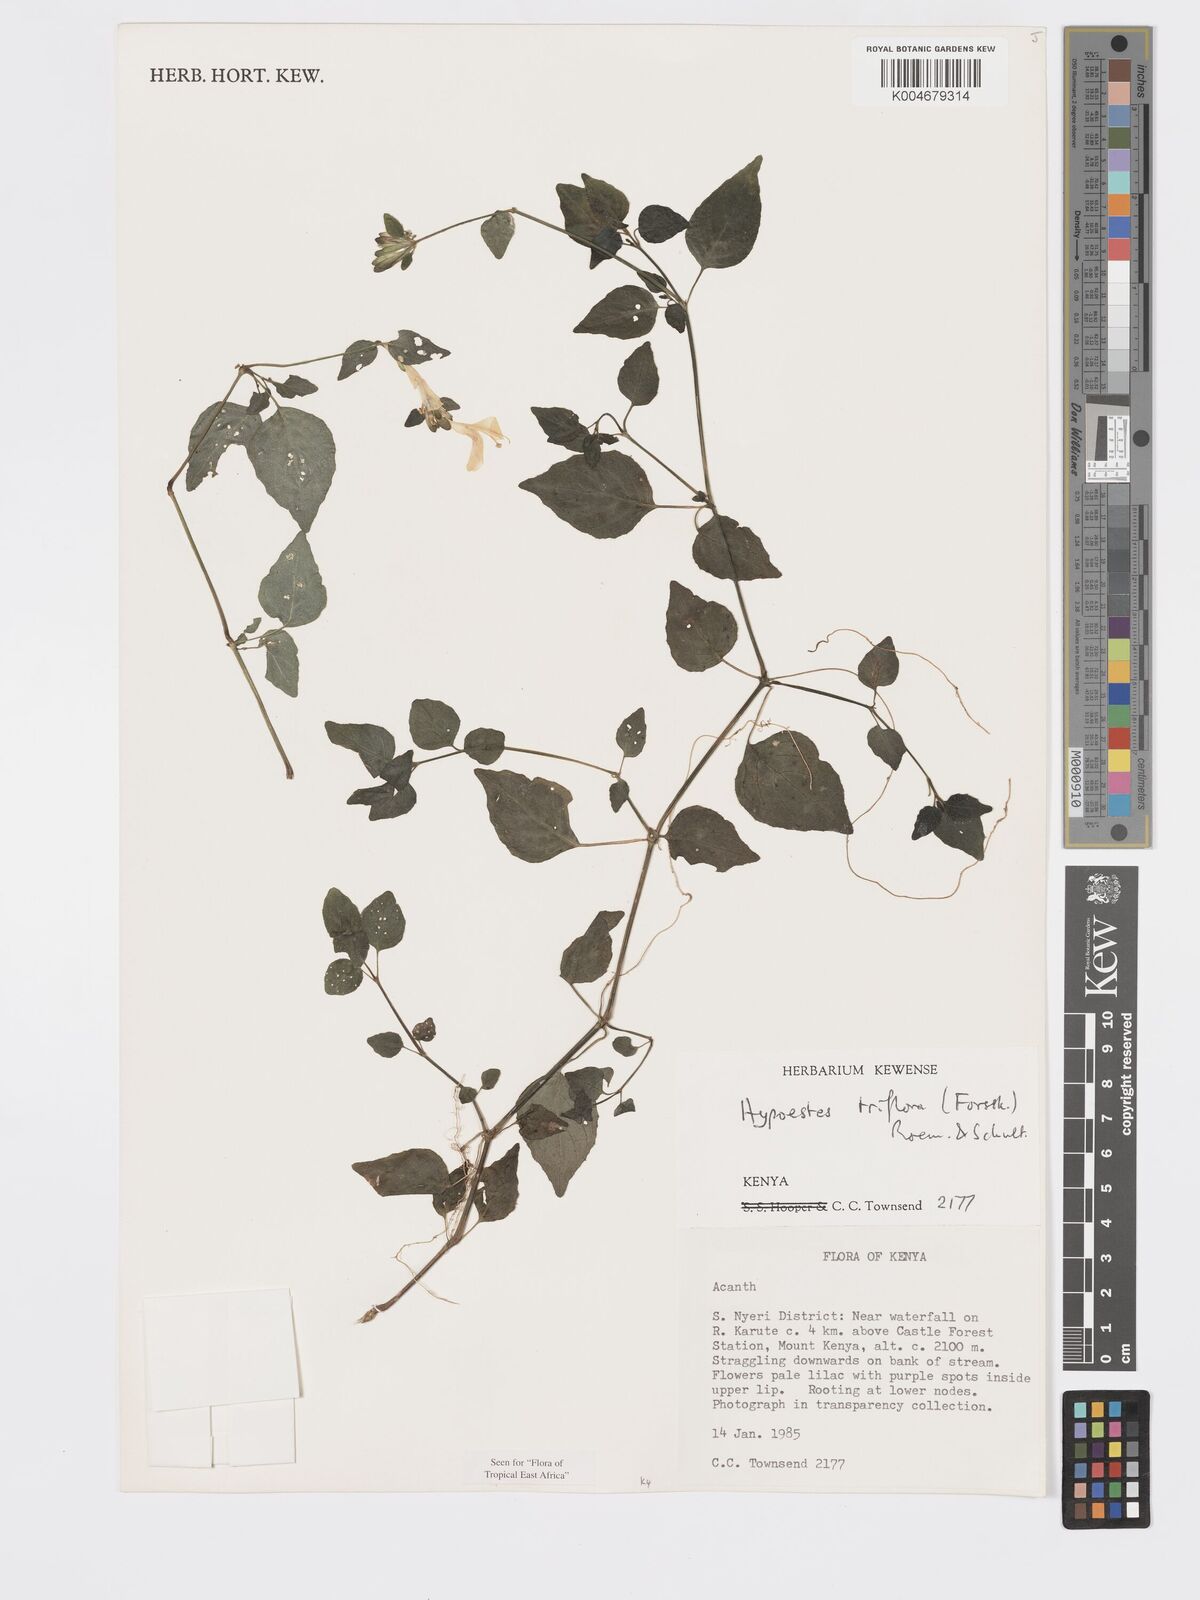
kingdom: Plantae
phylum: Tracheophyta
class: Magnoliopsida
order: Lamiales
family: Acanthaceae
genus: Hypoestes
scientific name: Hypoestes triflora
